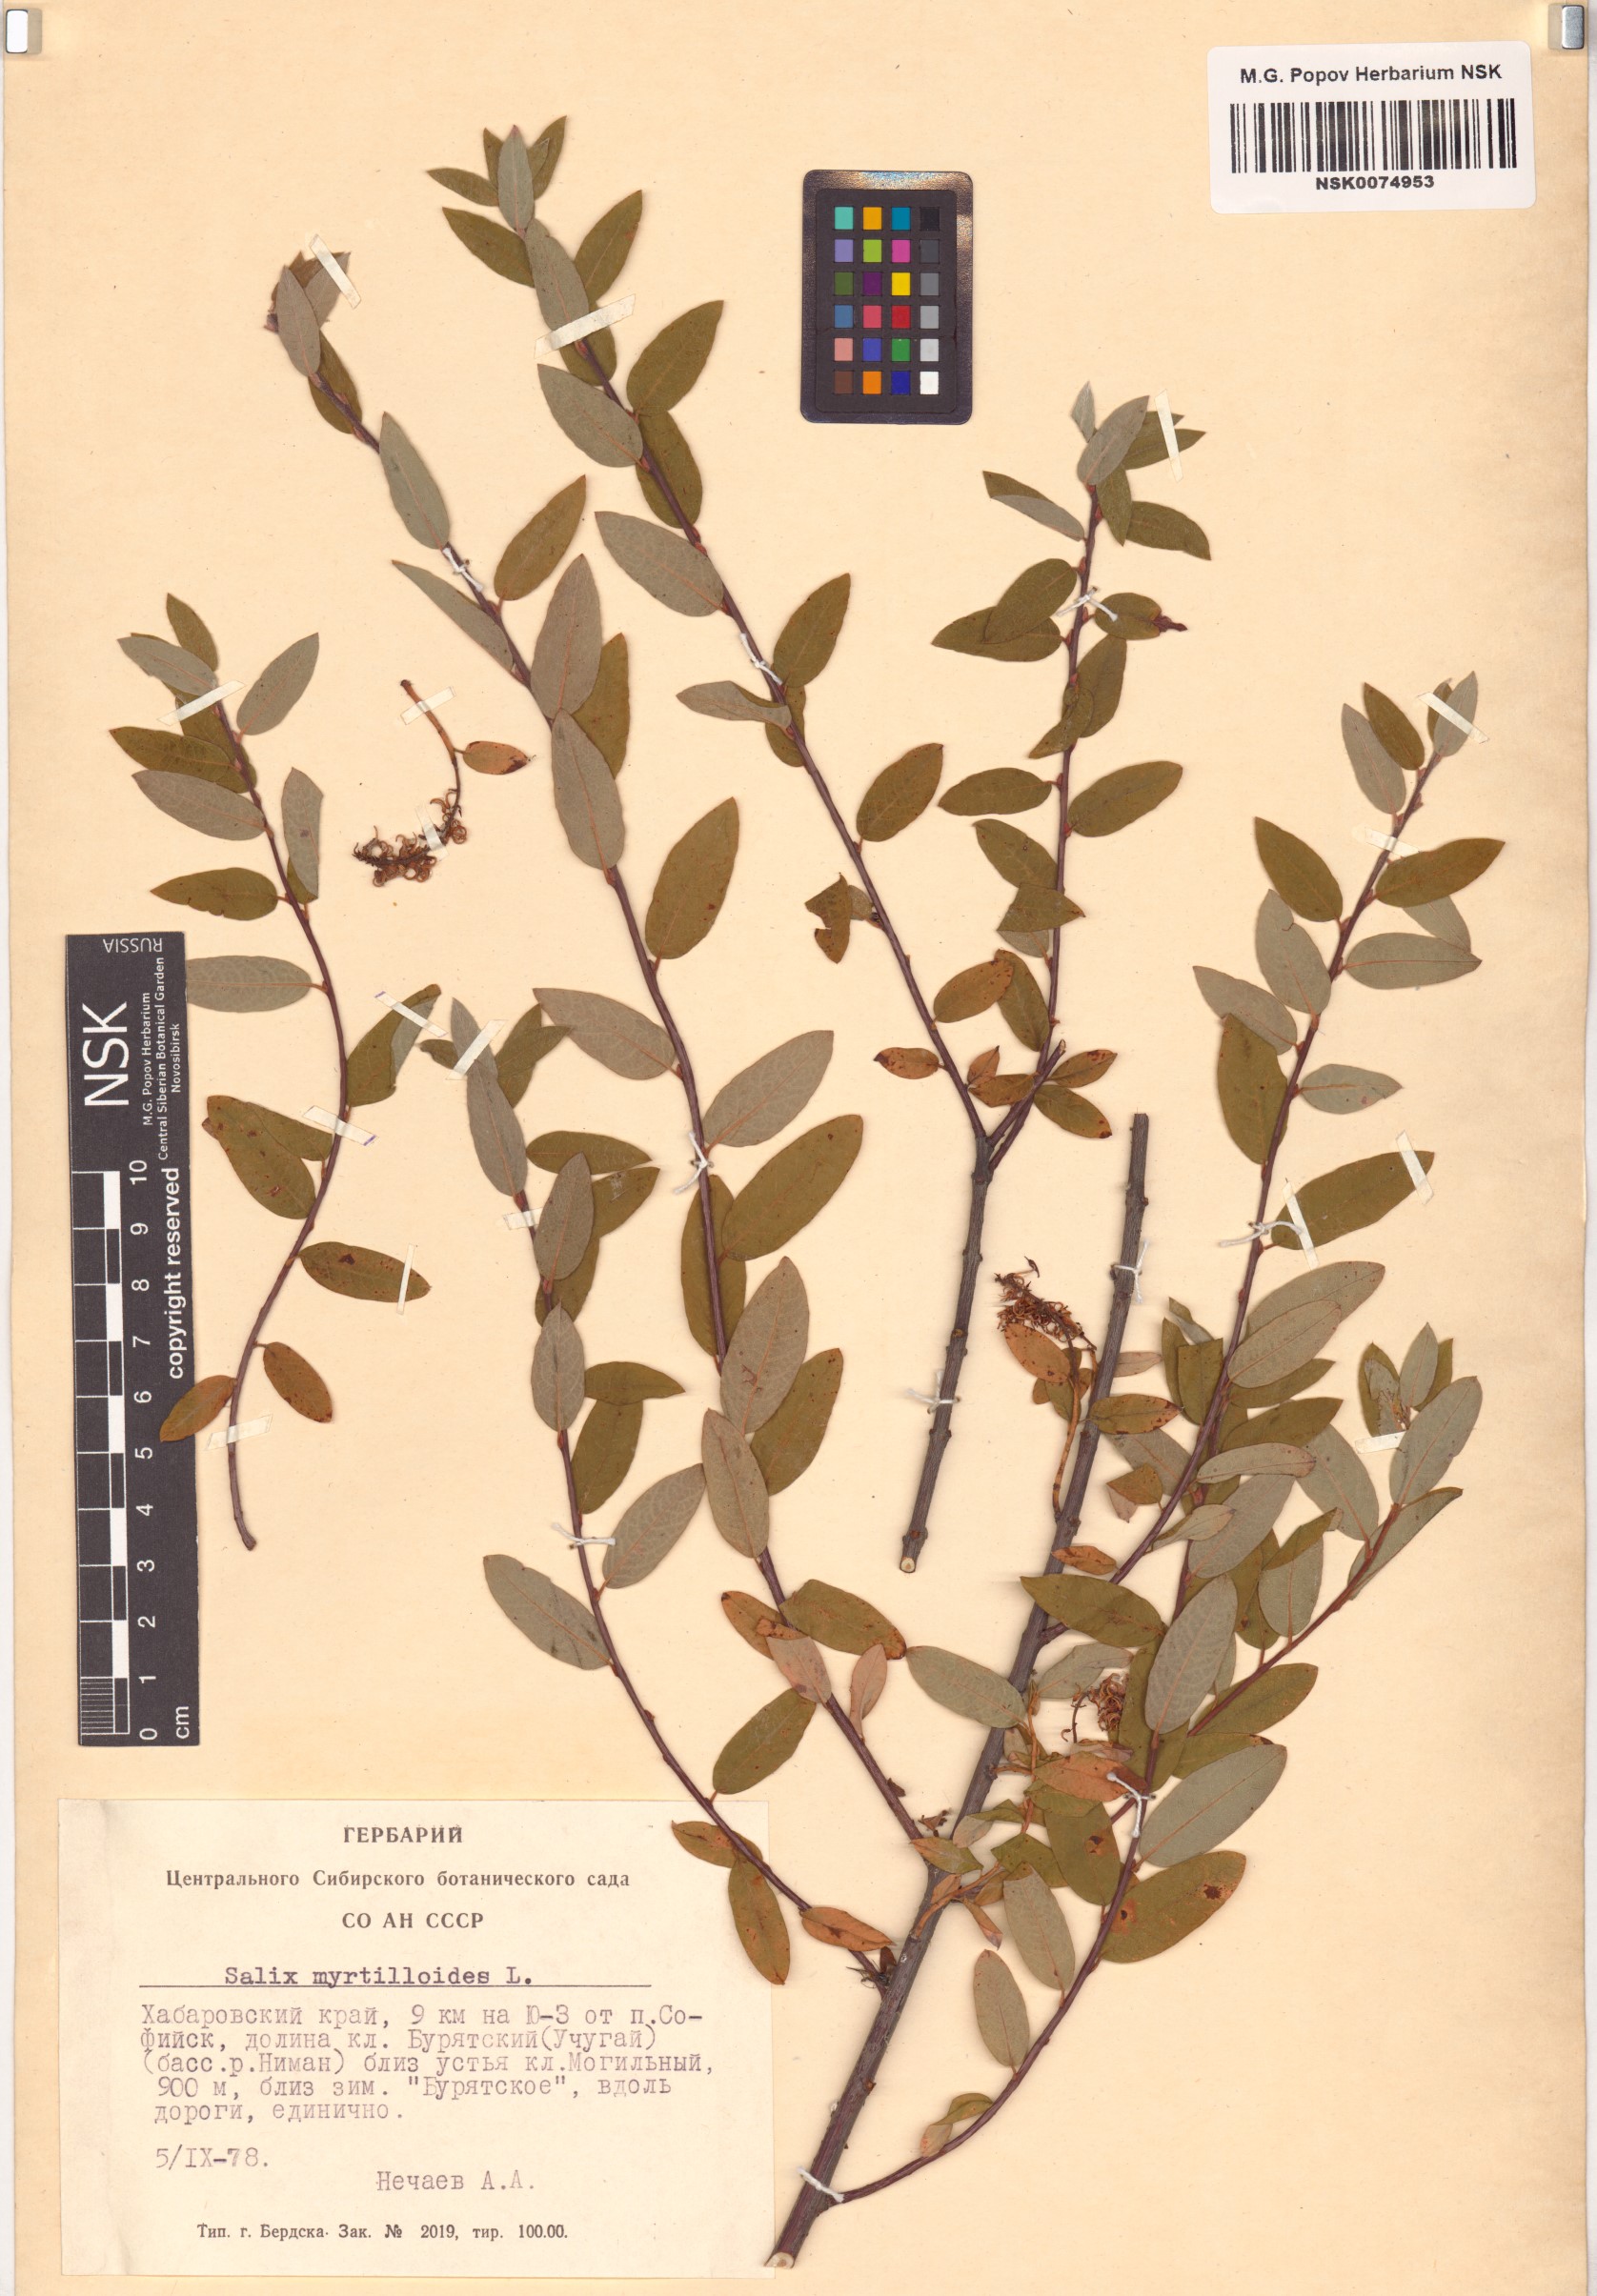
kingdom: Plantae
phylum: Tracheophyta
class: Magnoliopsida
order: Malpighiales
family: Salicaceae
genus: Salix
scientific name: Salix myrtilloides
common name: Myrtle-leaved willow
